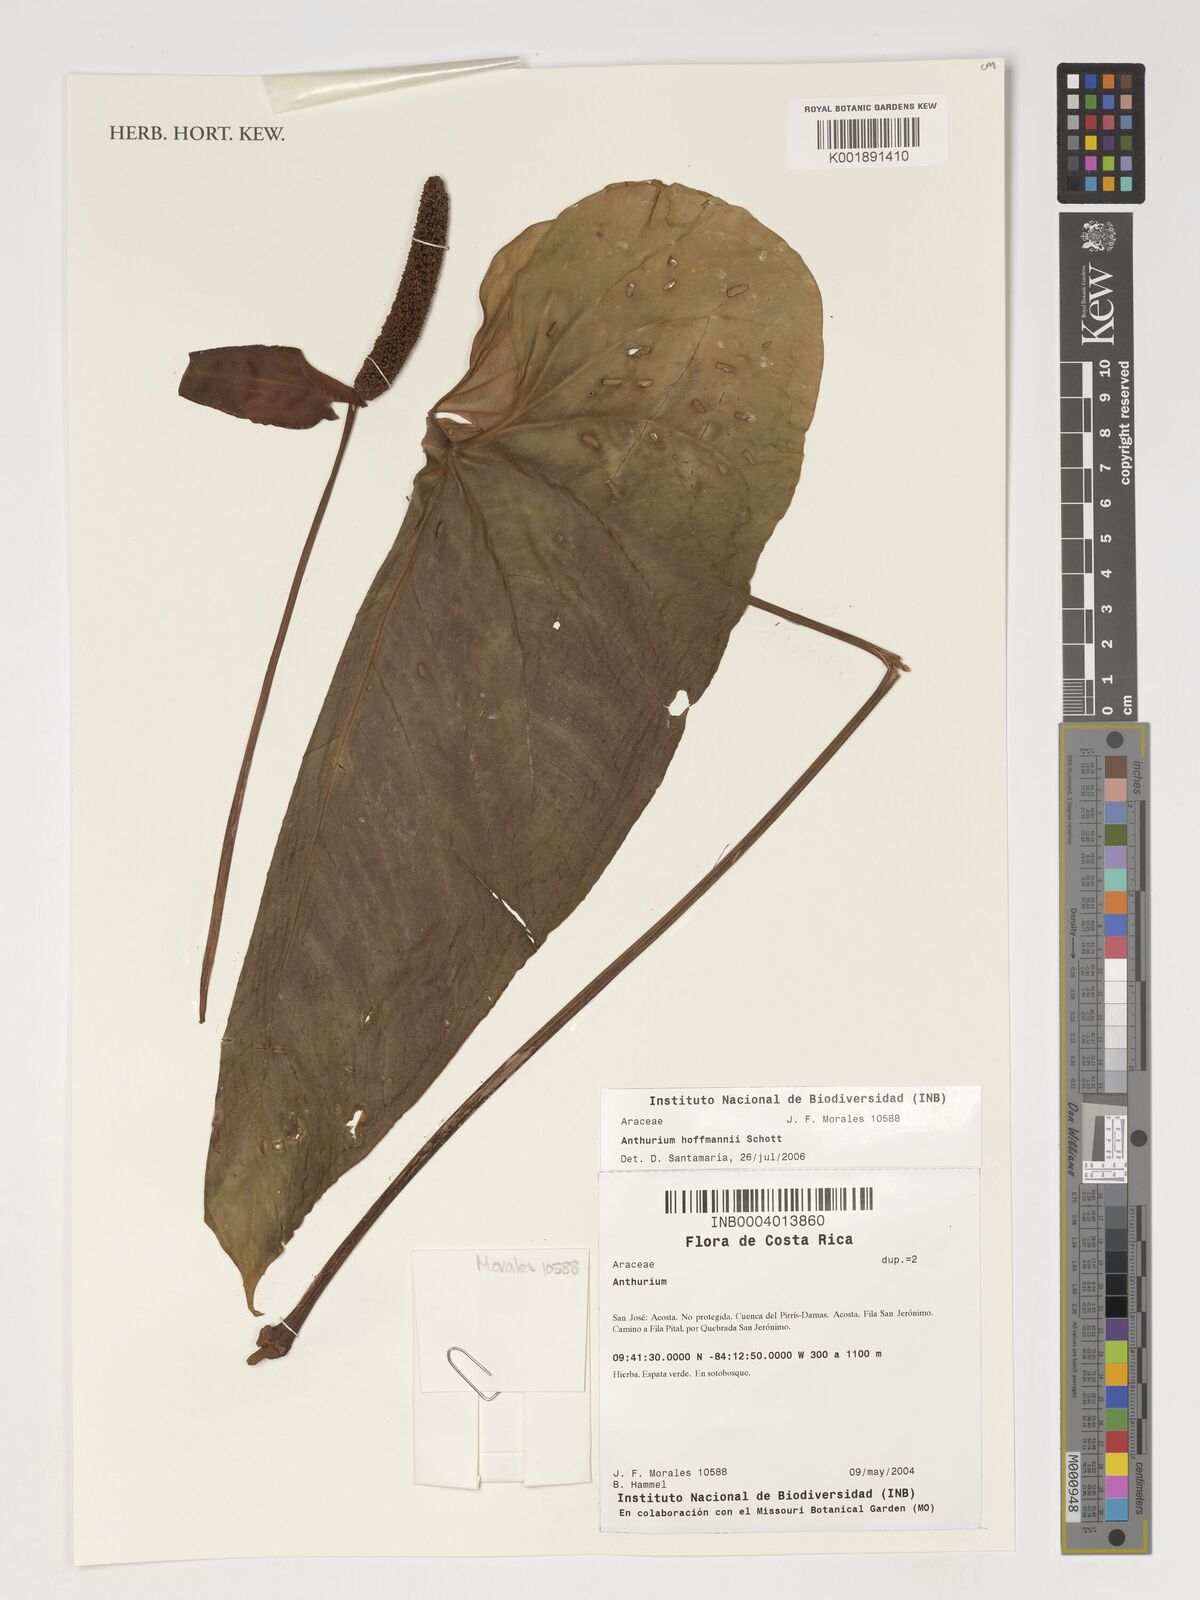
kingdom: Plantae
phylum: Tracheophyta
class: Liliopsida
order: Alismatales
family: Araceae
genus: Anthurium
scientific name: Anthurium hoffmannii
